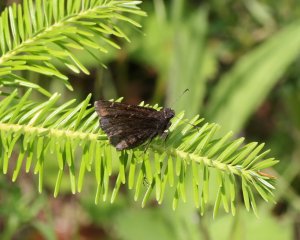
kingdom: Animalia
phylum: Arthropoda
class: Insecta
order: Lepidoptera
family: Hesperiidae
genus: Autochton
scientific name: Autochton
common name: Northern Cloudywing
